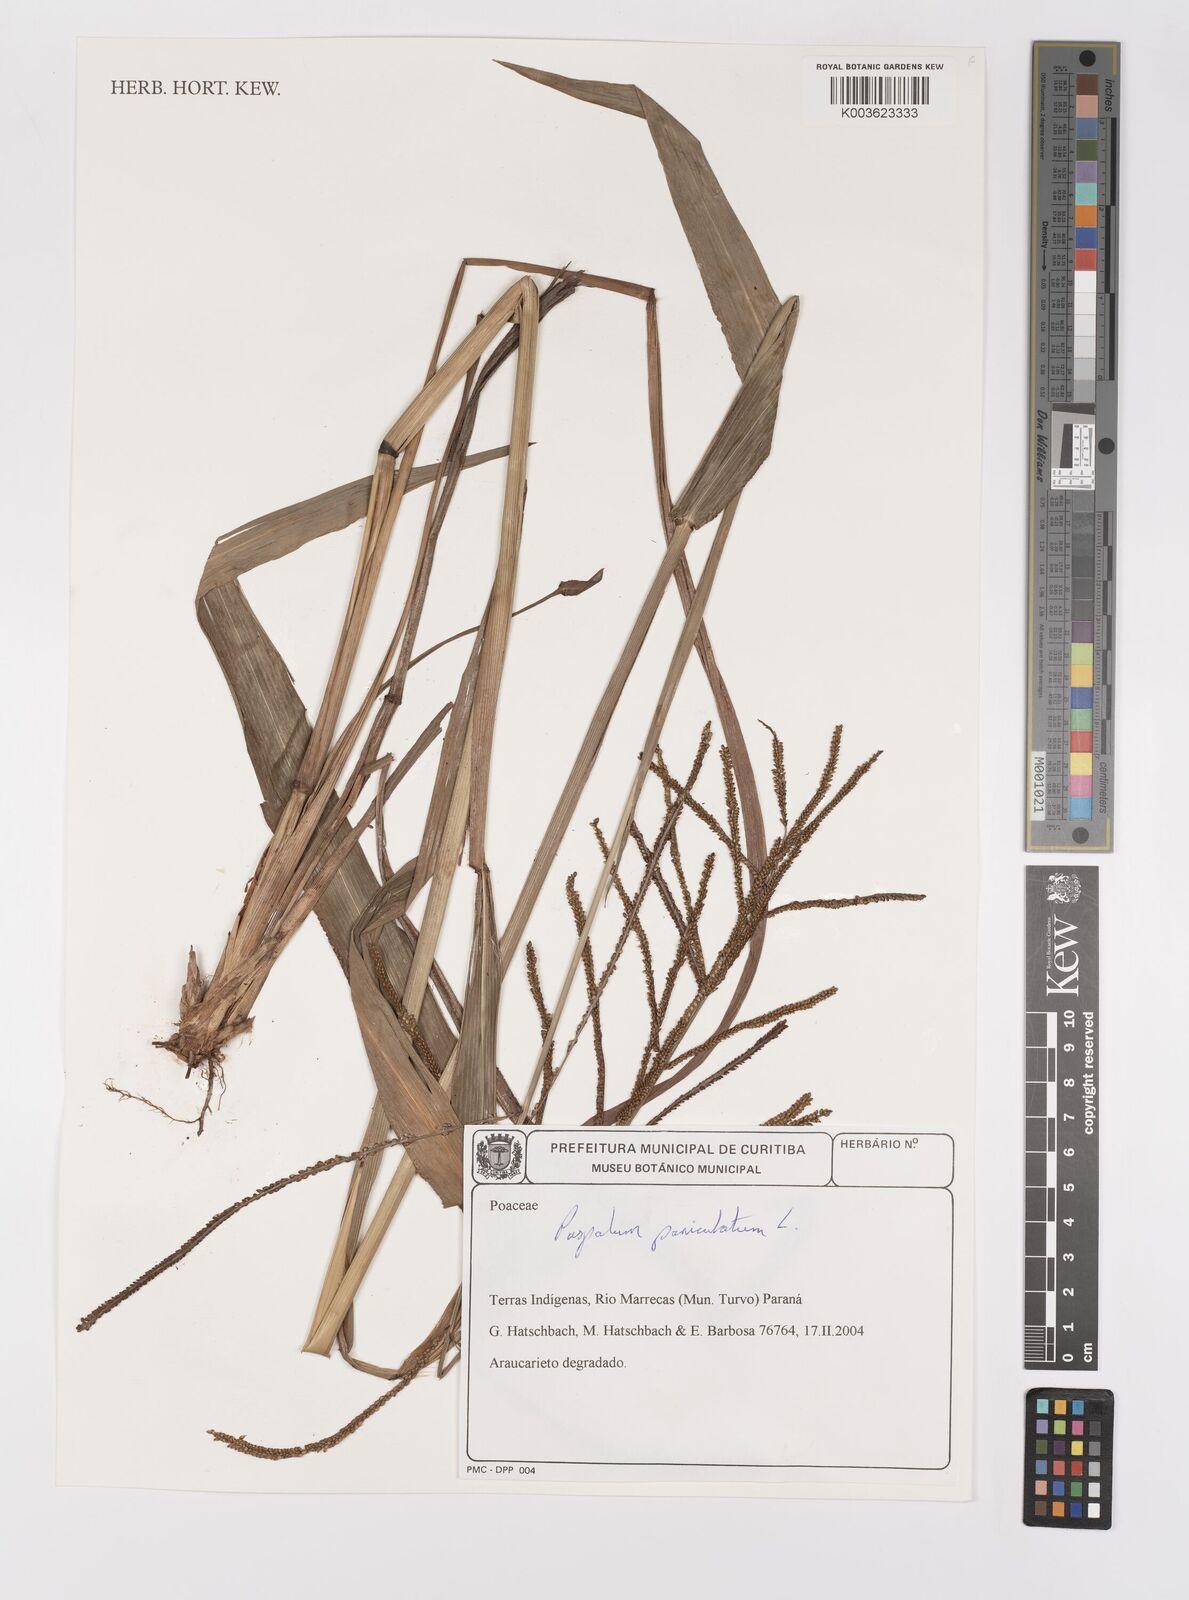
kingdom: Plantae
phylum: Tracheophyta
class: Liliopsida
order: Poales
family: Poaceae
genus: Paspalum
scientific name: Paspalum paniculatum
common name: Arrocillo
